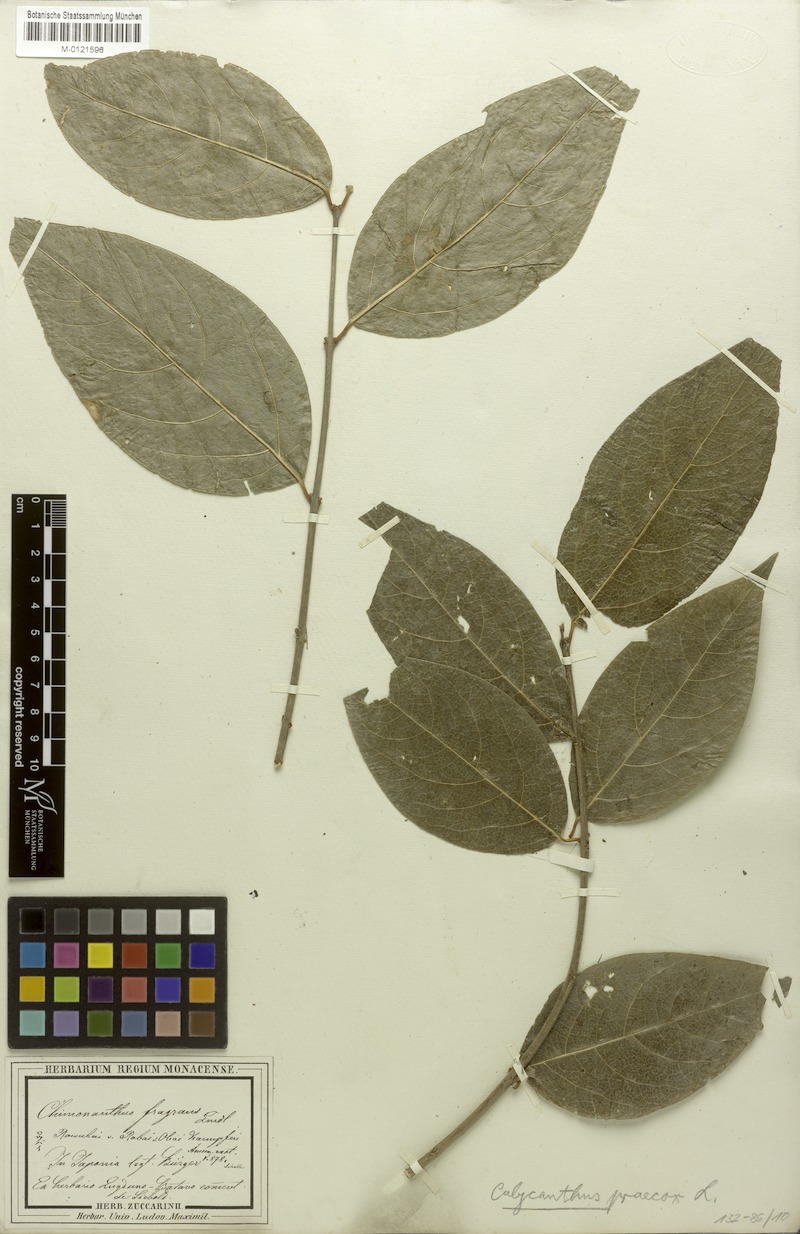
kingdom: Plantae
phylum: Tracheophyta
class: Magnoliopsida
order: Laurales
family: Calycanthaceae
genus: Chimonanthus
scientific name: Chimonanthus praecox
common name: Wintersweet
